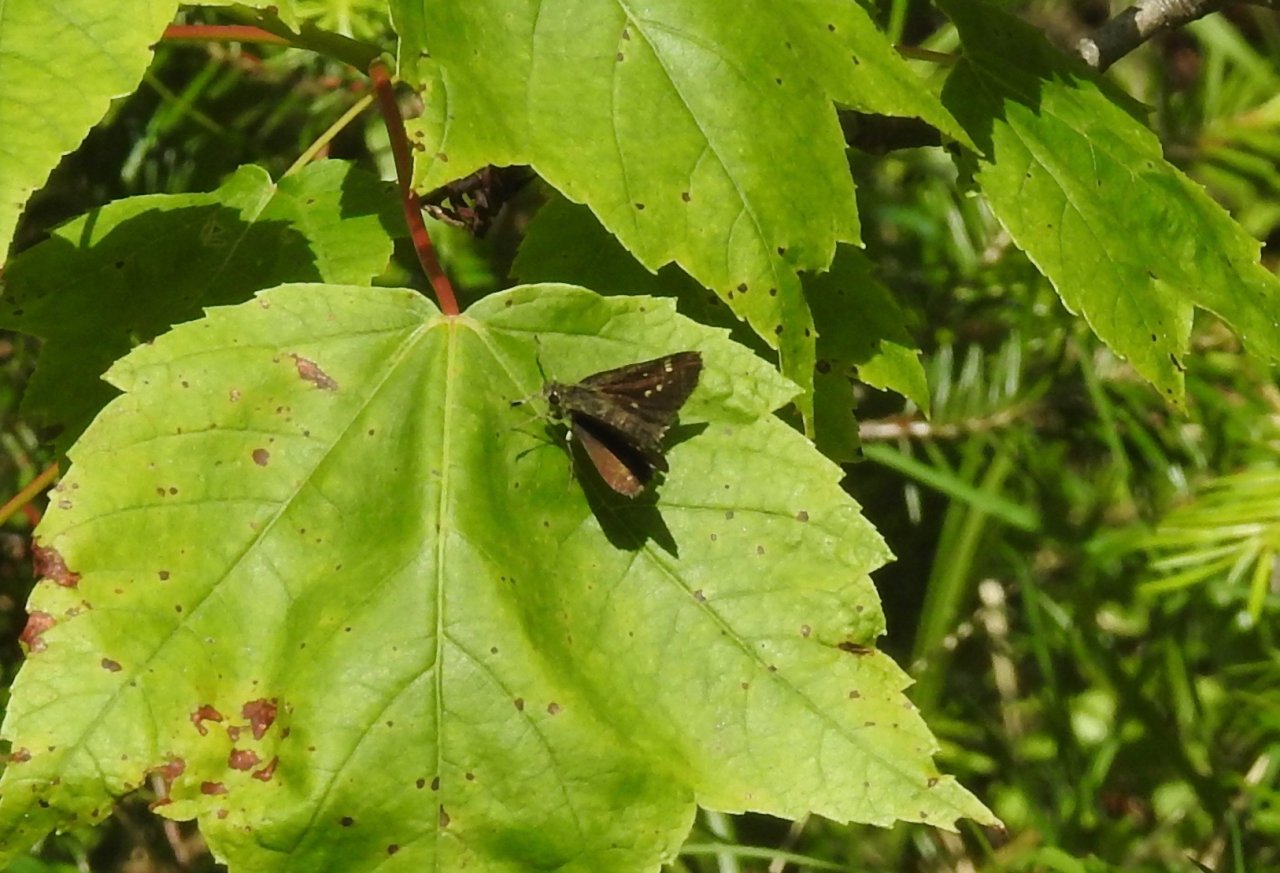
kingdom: Animalia
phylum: Arthropoda
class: Insecta
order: Lepidoptera
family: Hesperiidae
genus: Mastor
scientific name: Mastor hegon
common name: Pepper and Salt Skipper
